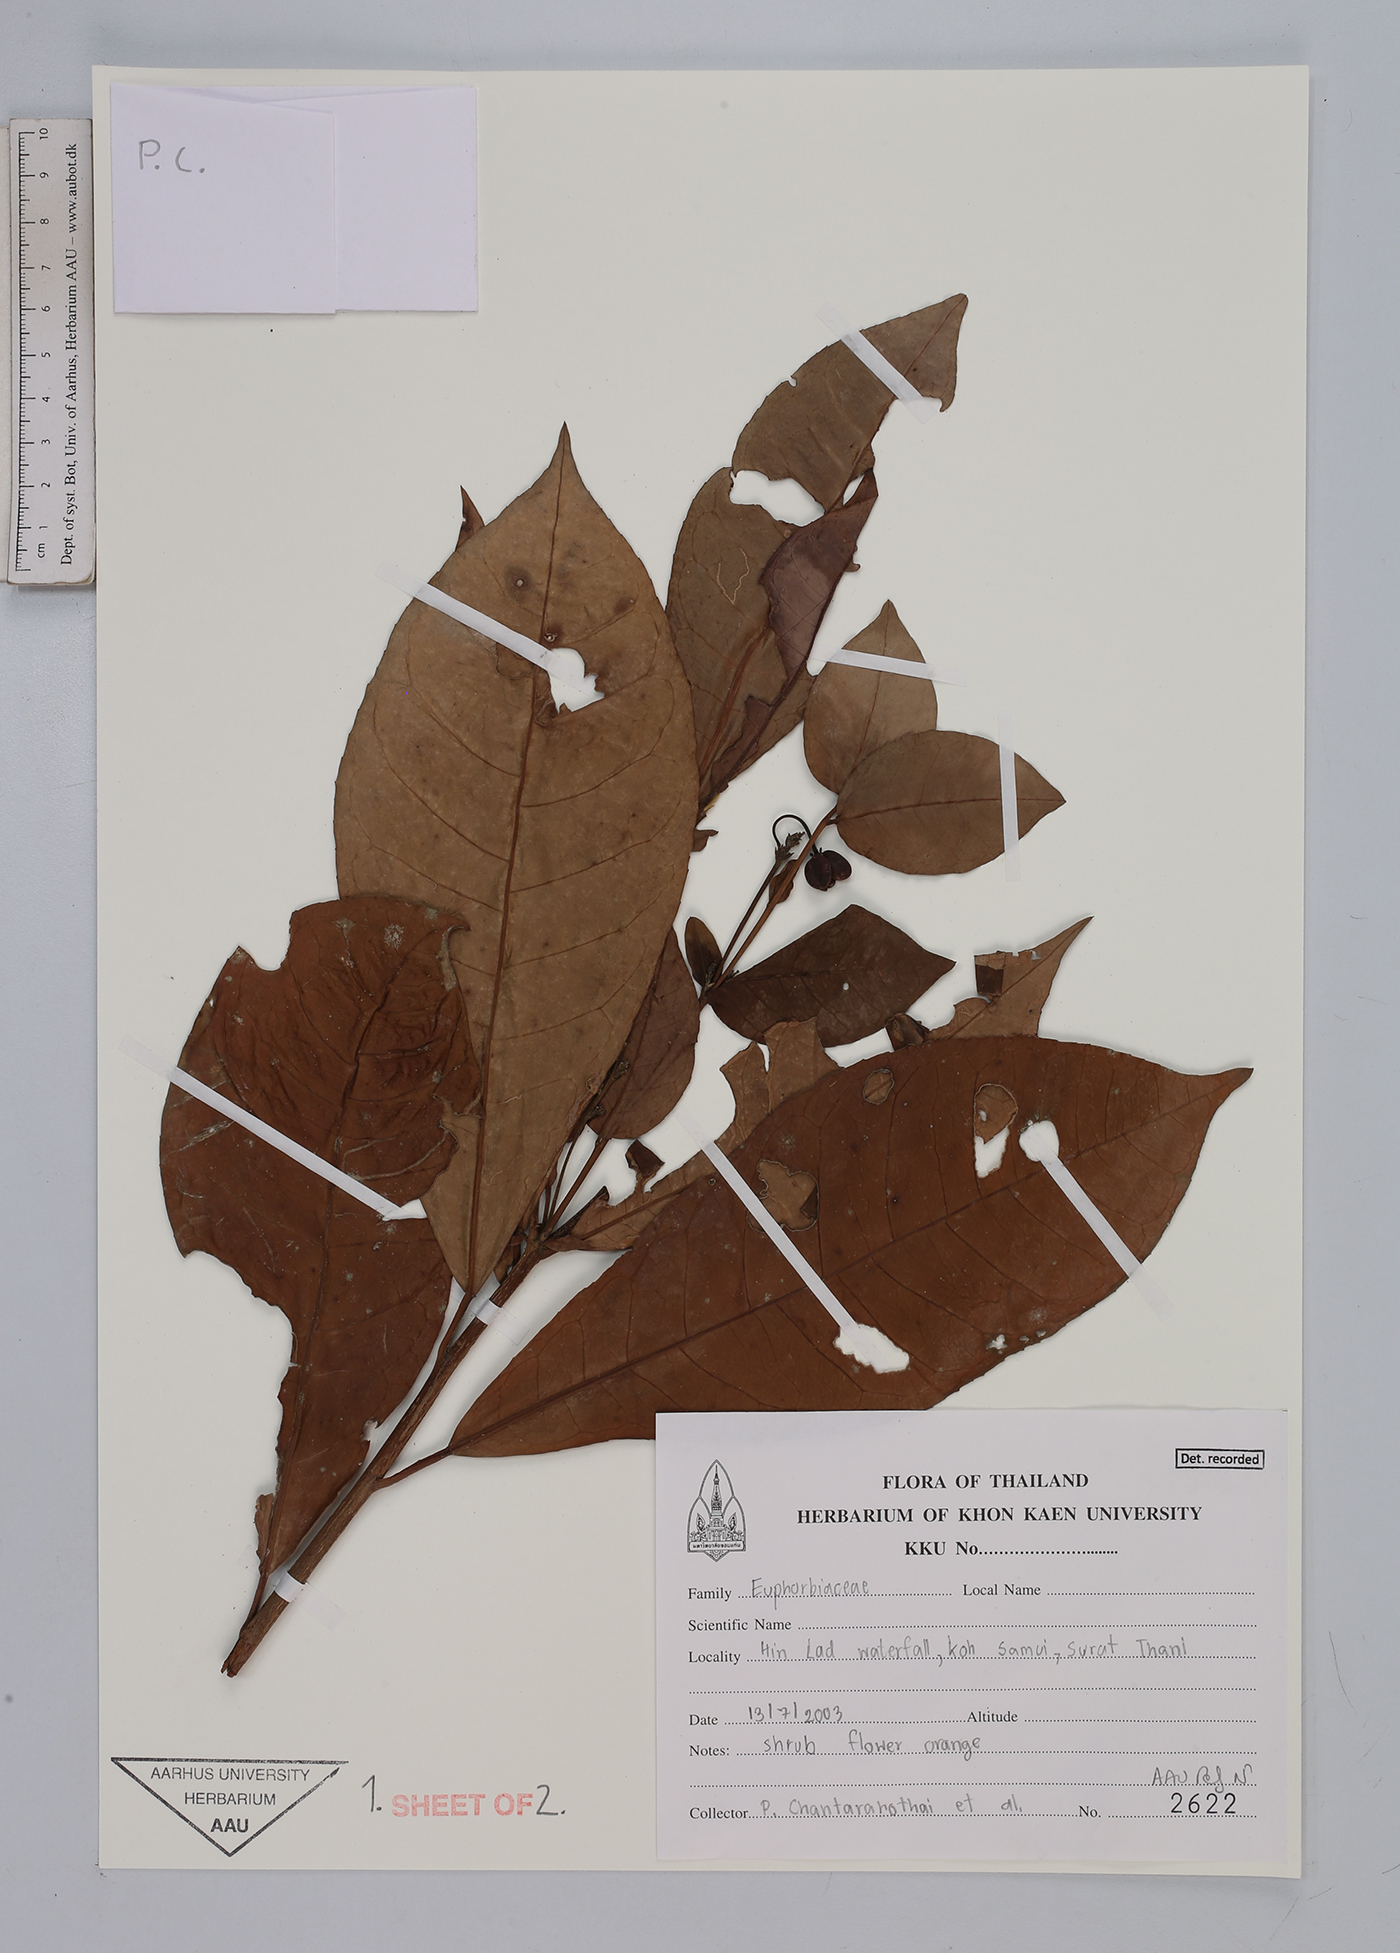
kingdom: Plantae
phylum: Tracheophyta
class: Magnoliopsida
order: Malpighiales
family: Euphorbiaceae
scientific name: Euphorbiaceae
